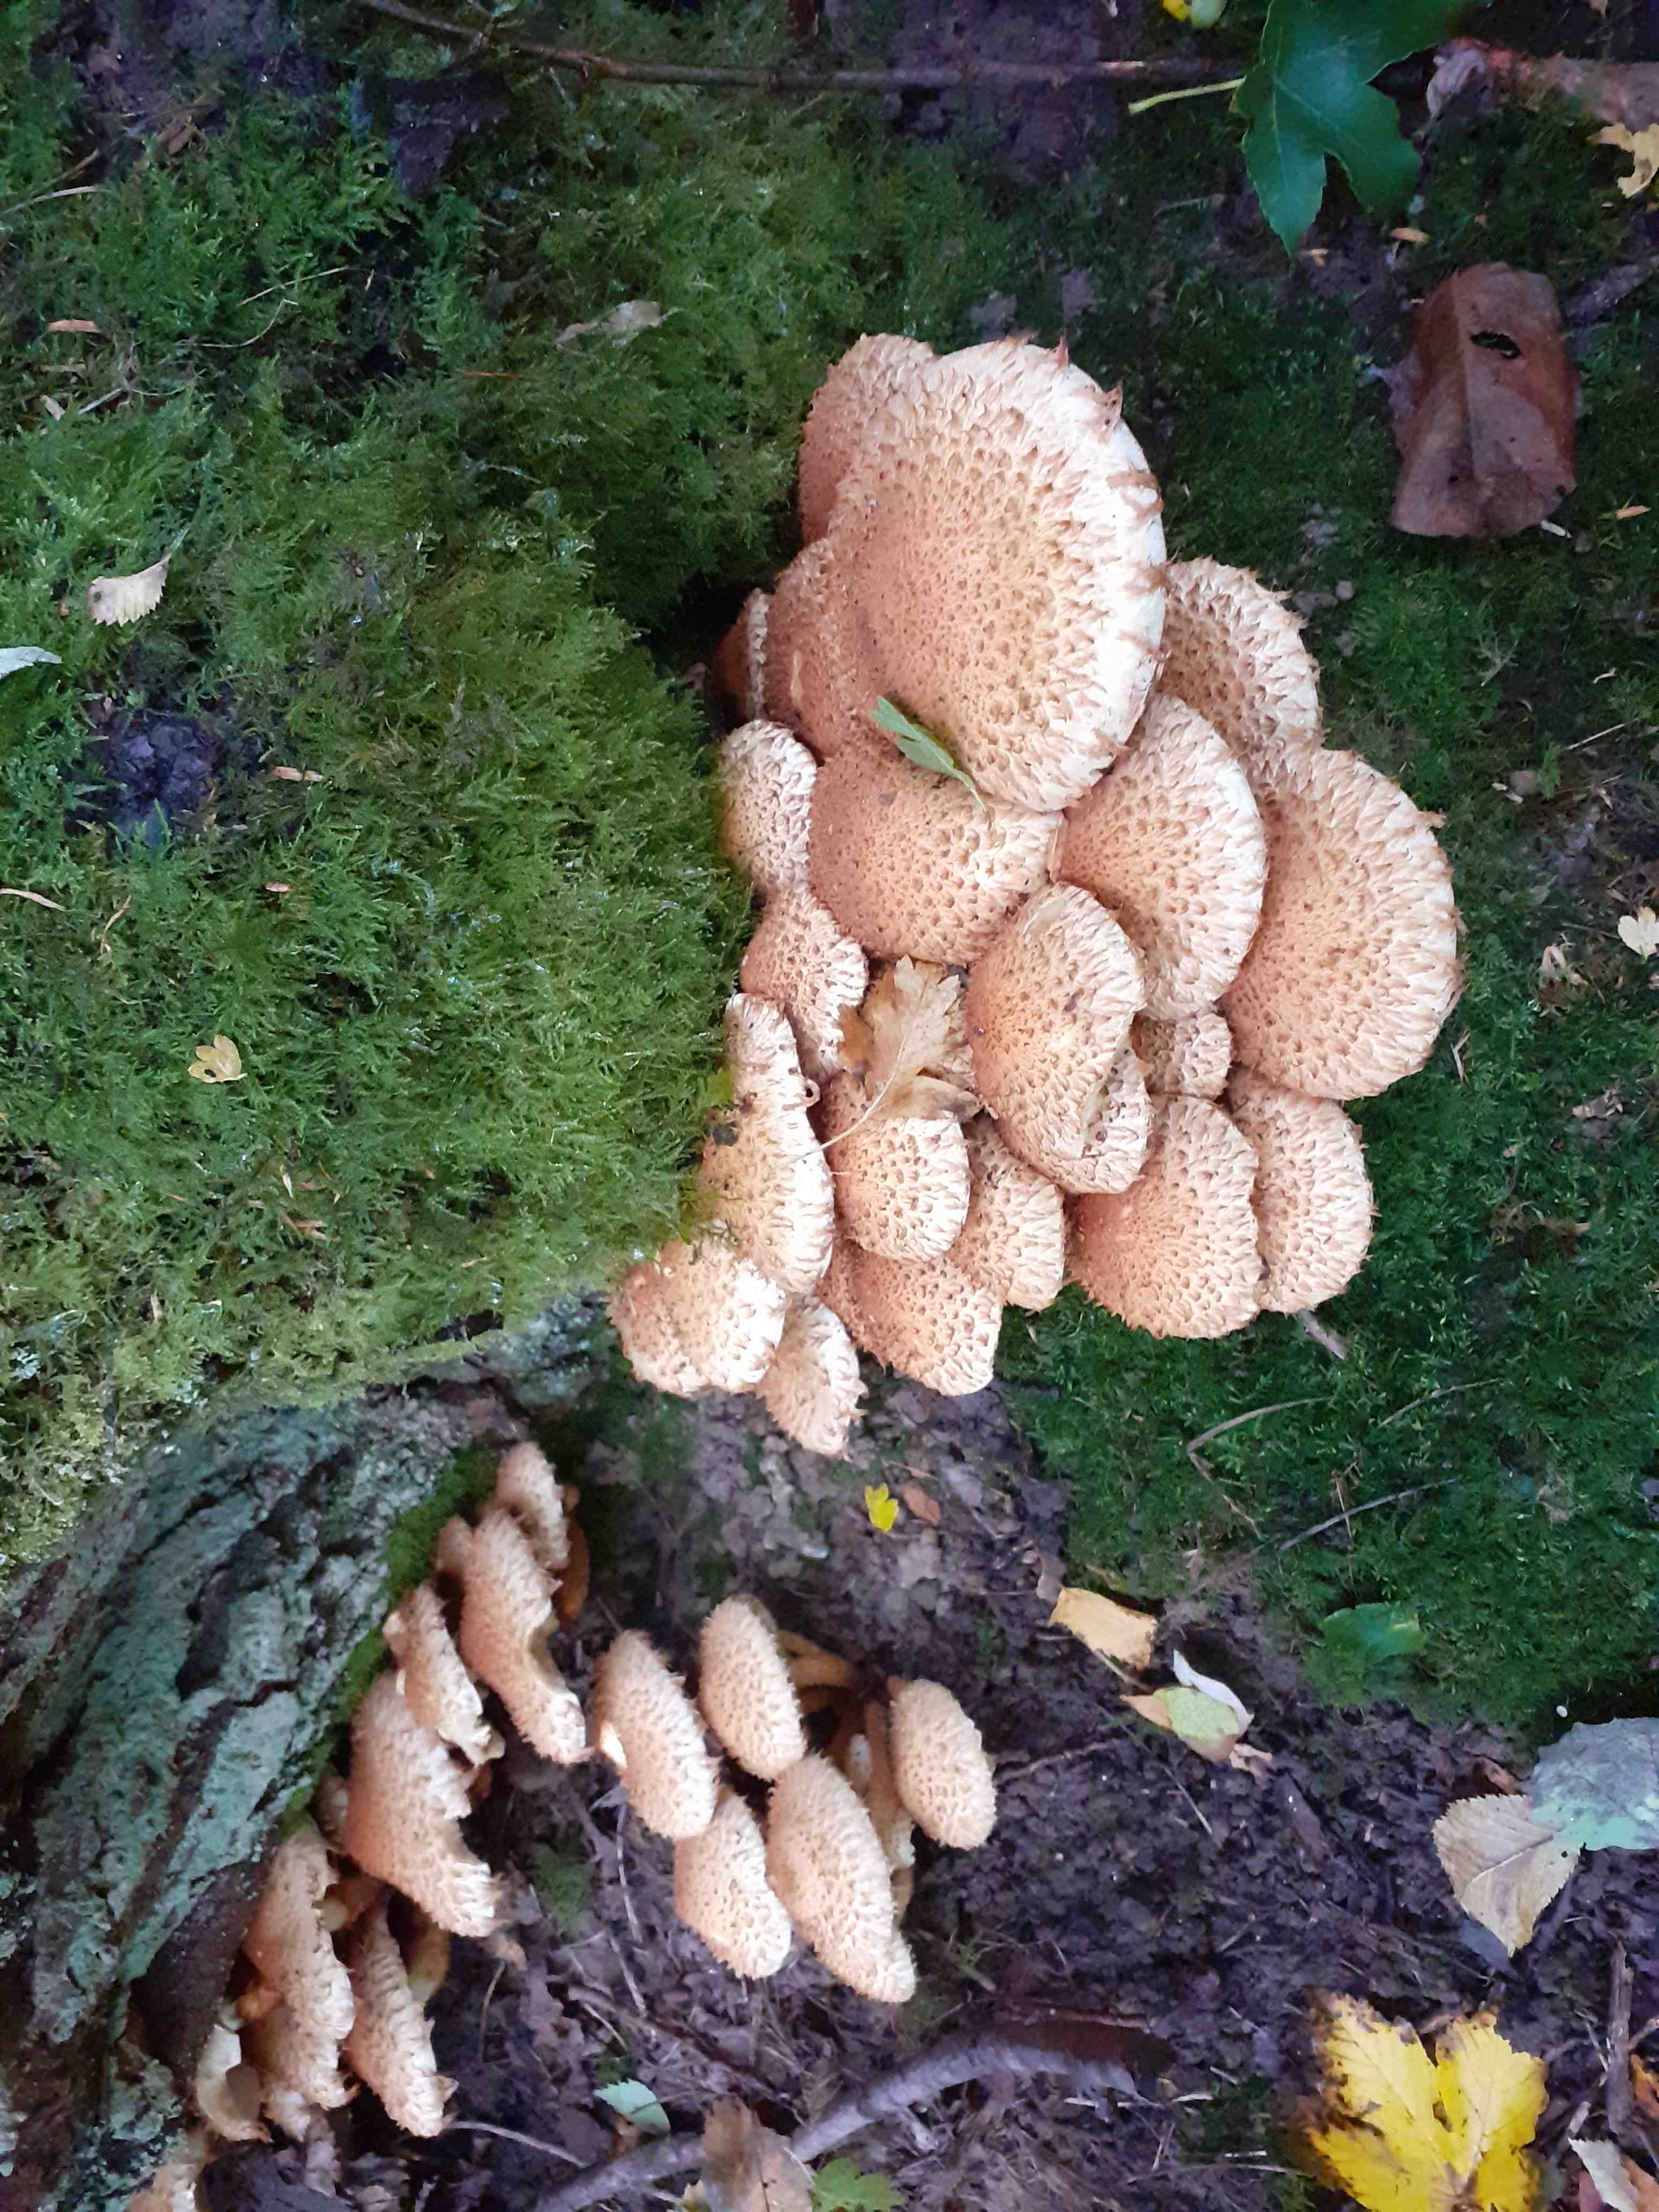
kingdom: Fungi
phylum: Basidiomycota
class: Agaricomycetes
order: Agaricales
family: Strophariaceae
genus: Pholiota
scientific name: Pholiota squarrosa
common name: krumskællet skælhat
